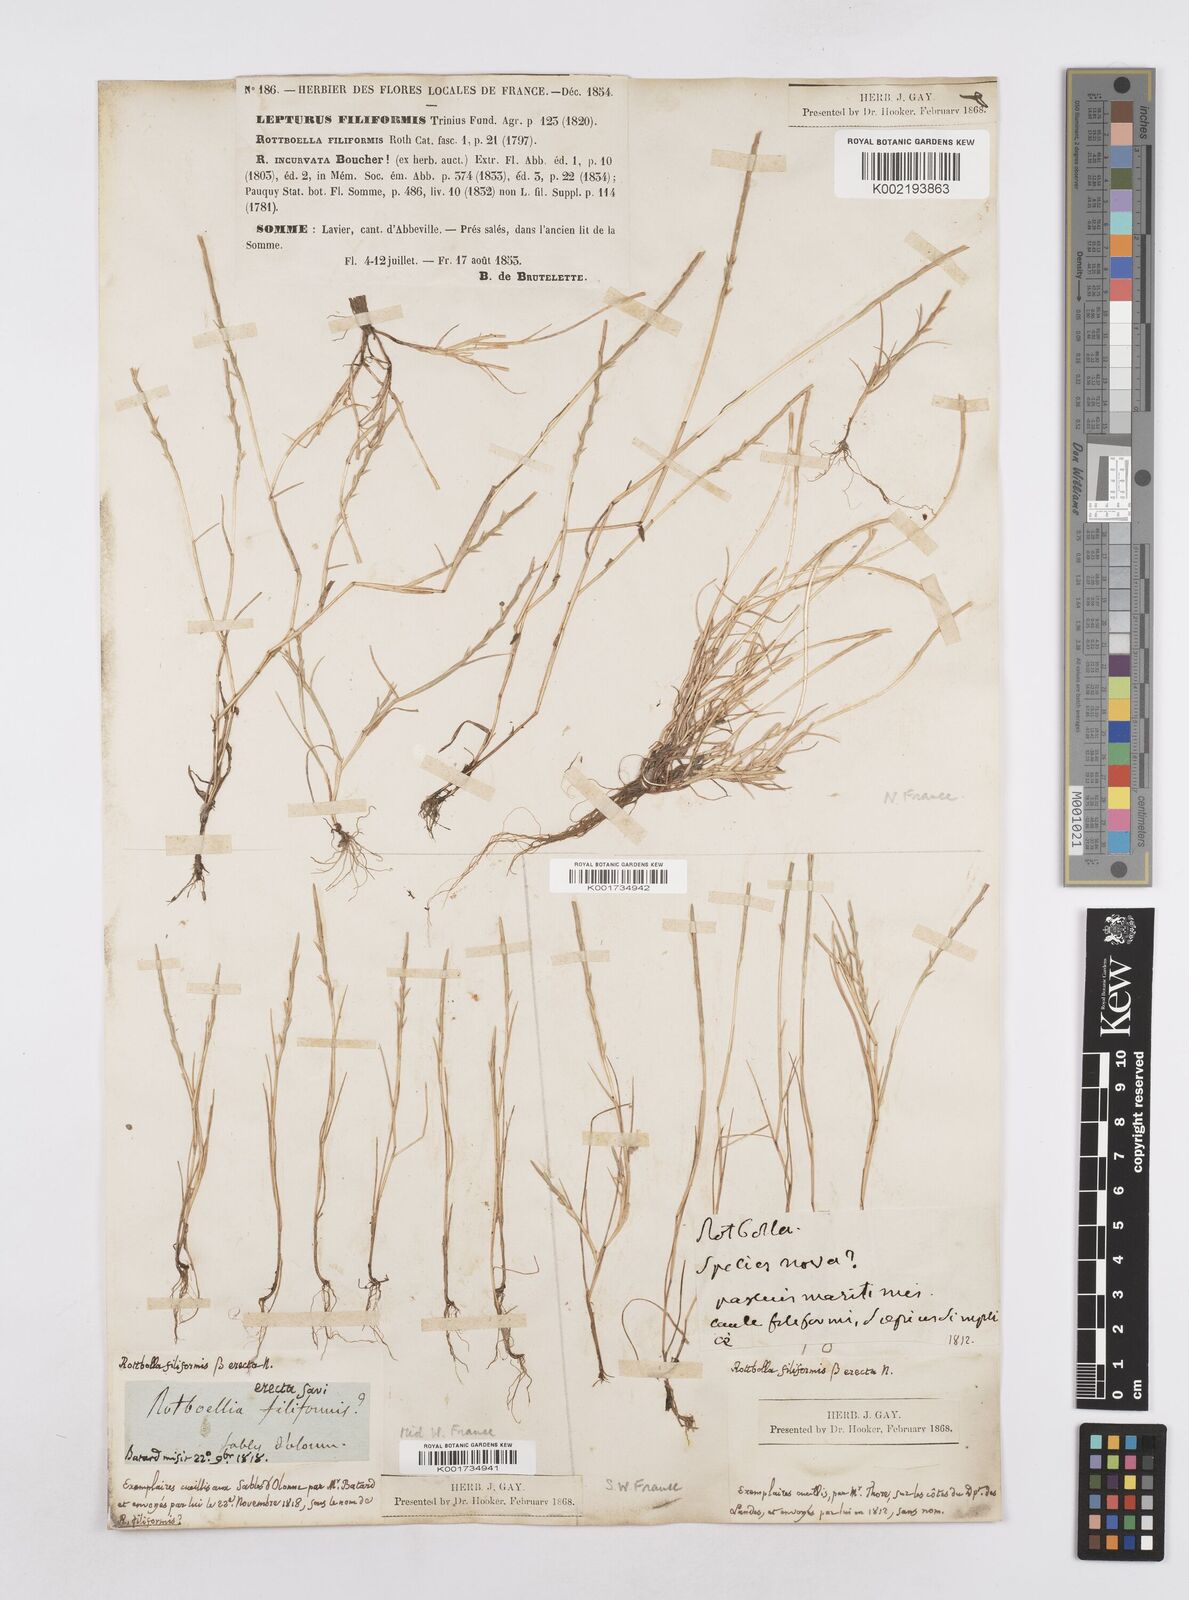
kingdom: Plantae
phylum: Tracheophyta
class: Liliopsida
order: Poales
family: Poaceae
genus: Parapholis
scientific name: Parapholis strigosa
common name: Hard-grass
